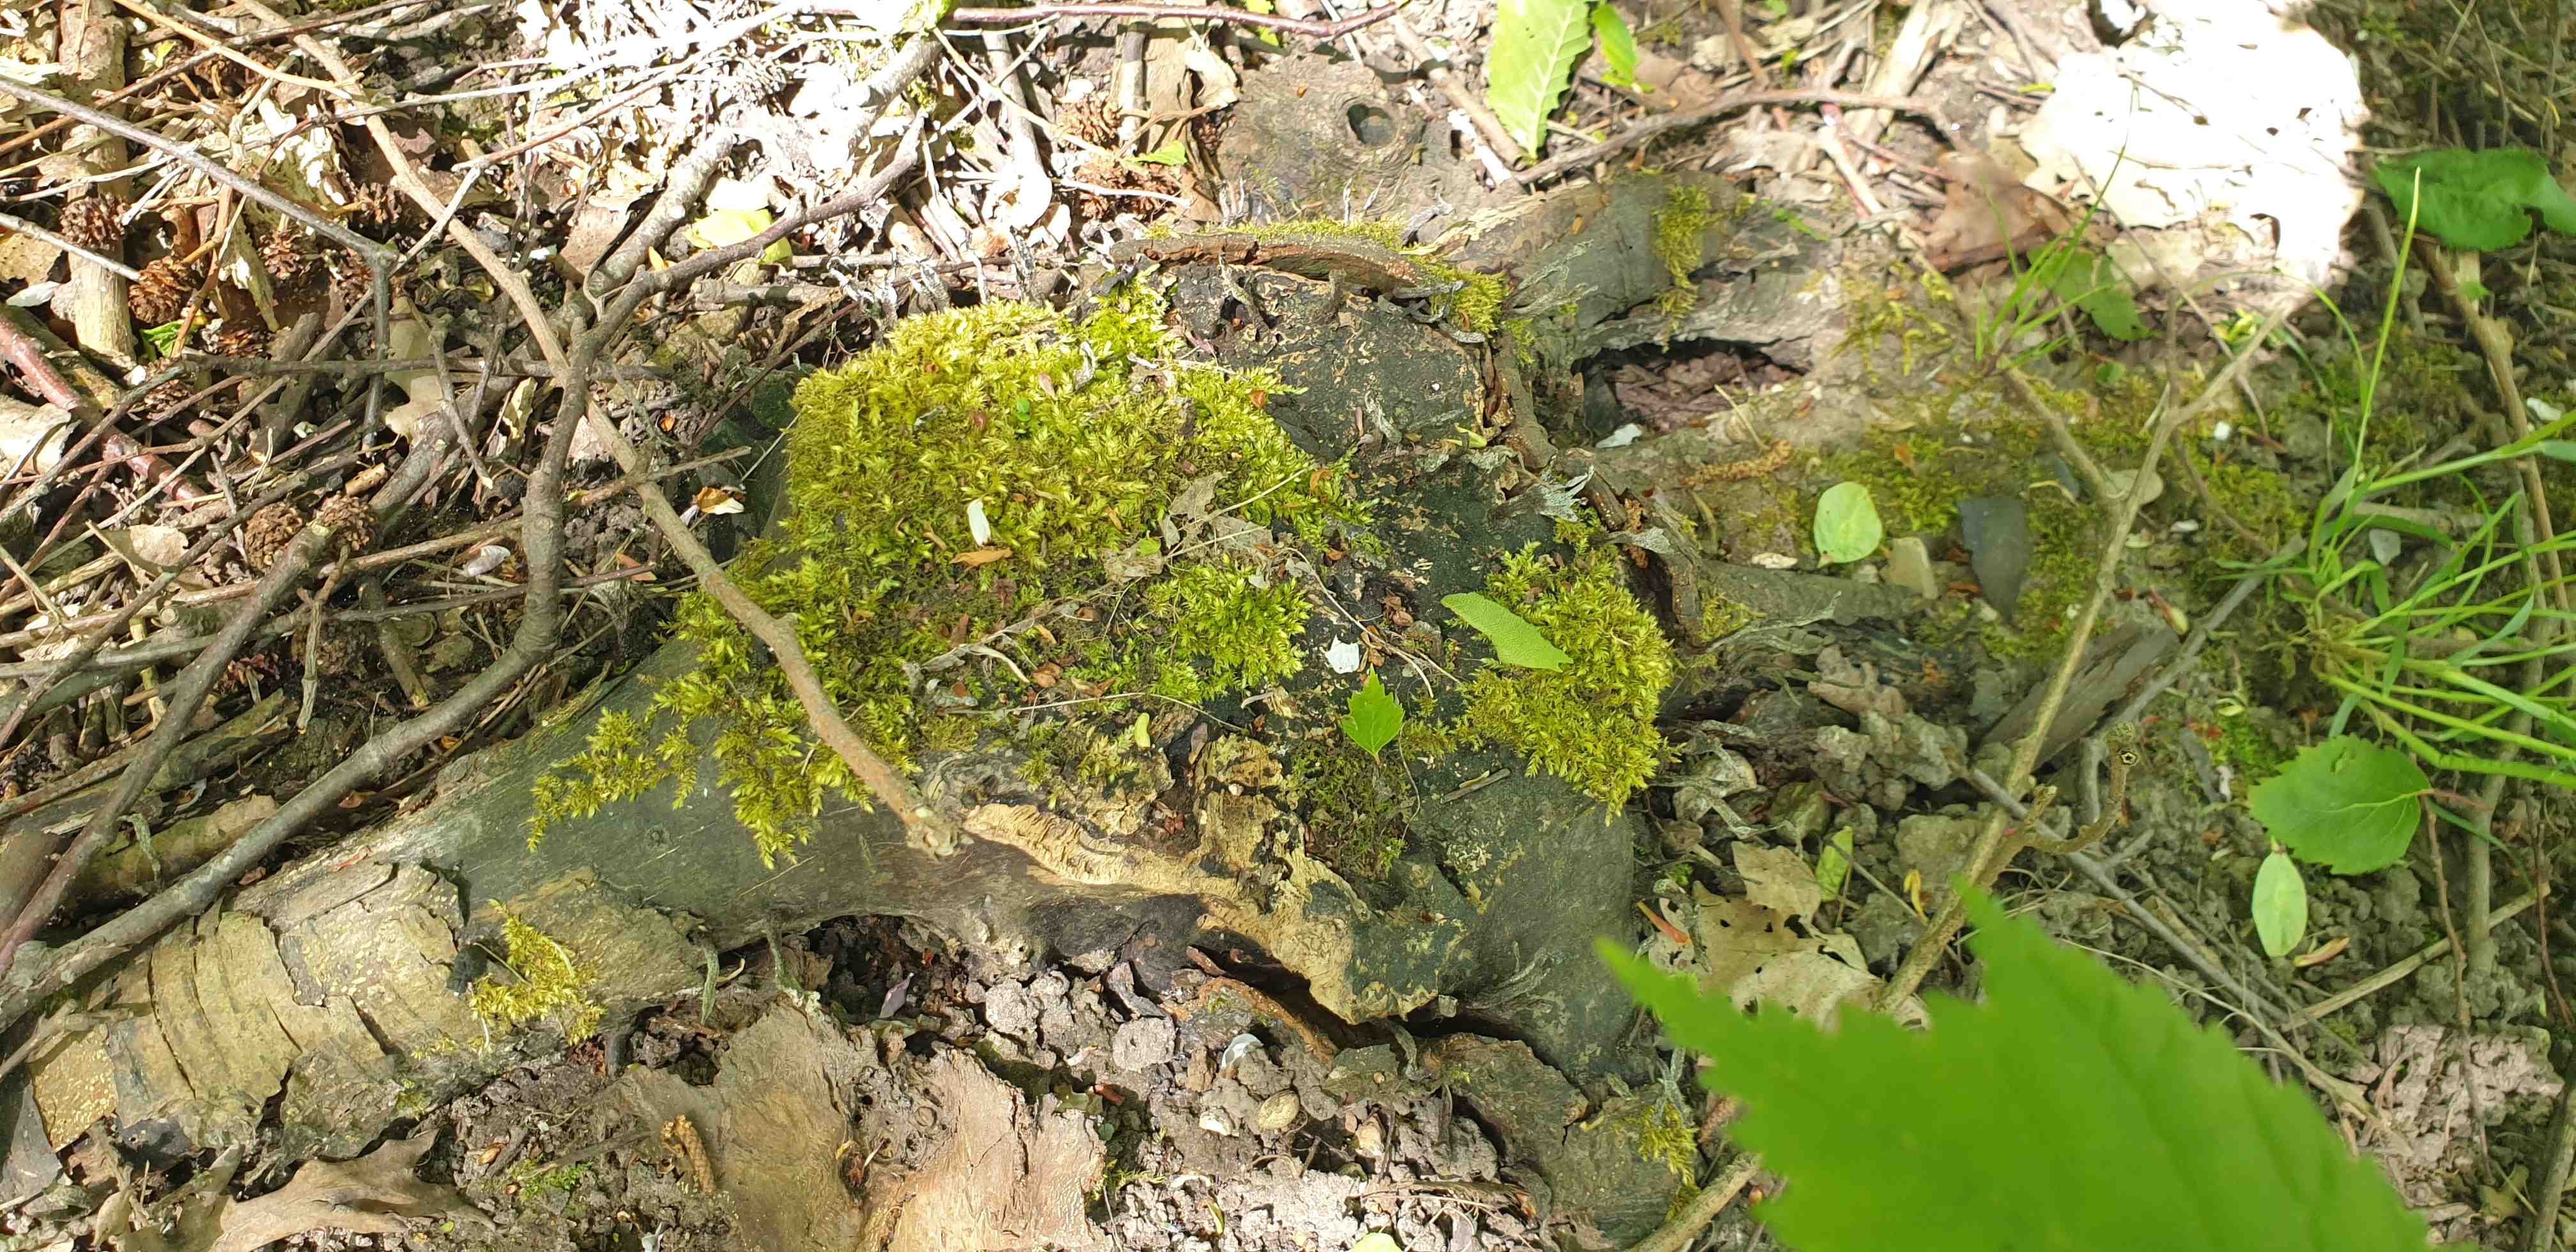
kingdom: Fungi
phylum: Ascomycota
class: Sordariomycetes
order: Xylariales
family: Xylariaceae
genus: Xylaria
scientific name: Xylaria hypoxylon
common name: grenet stødsvamp
